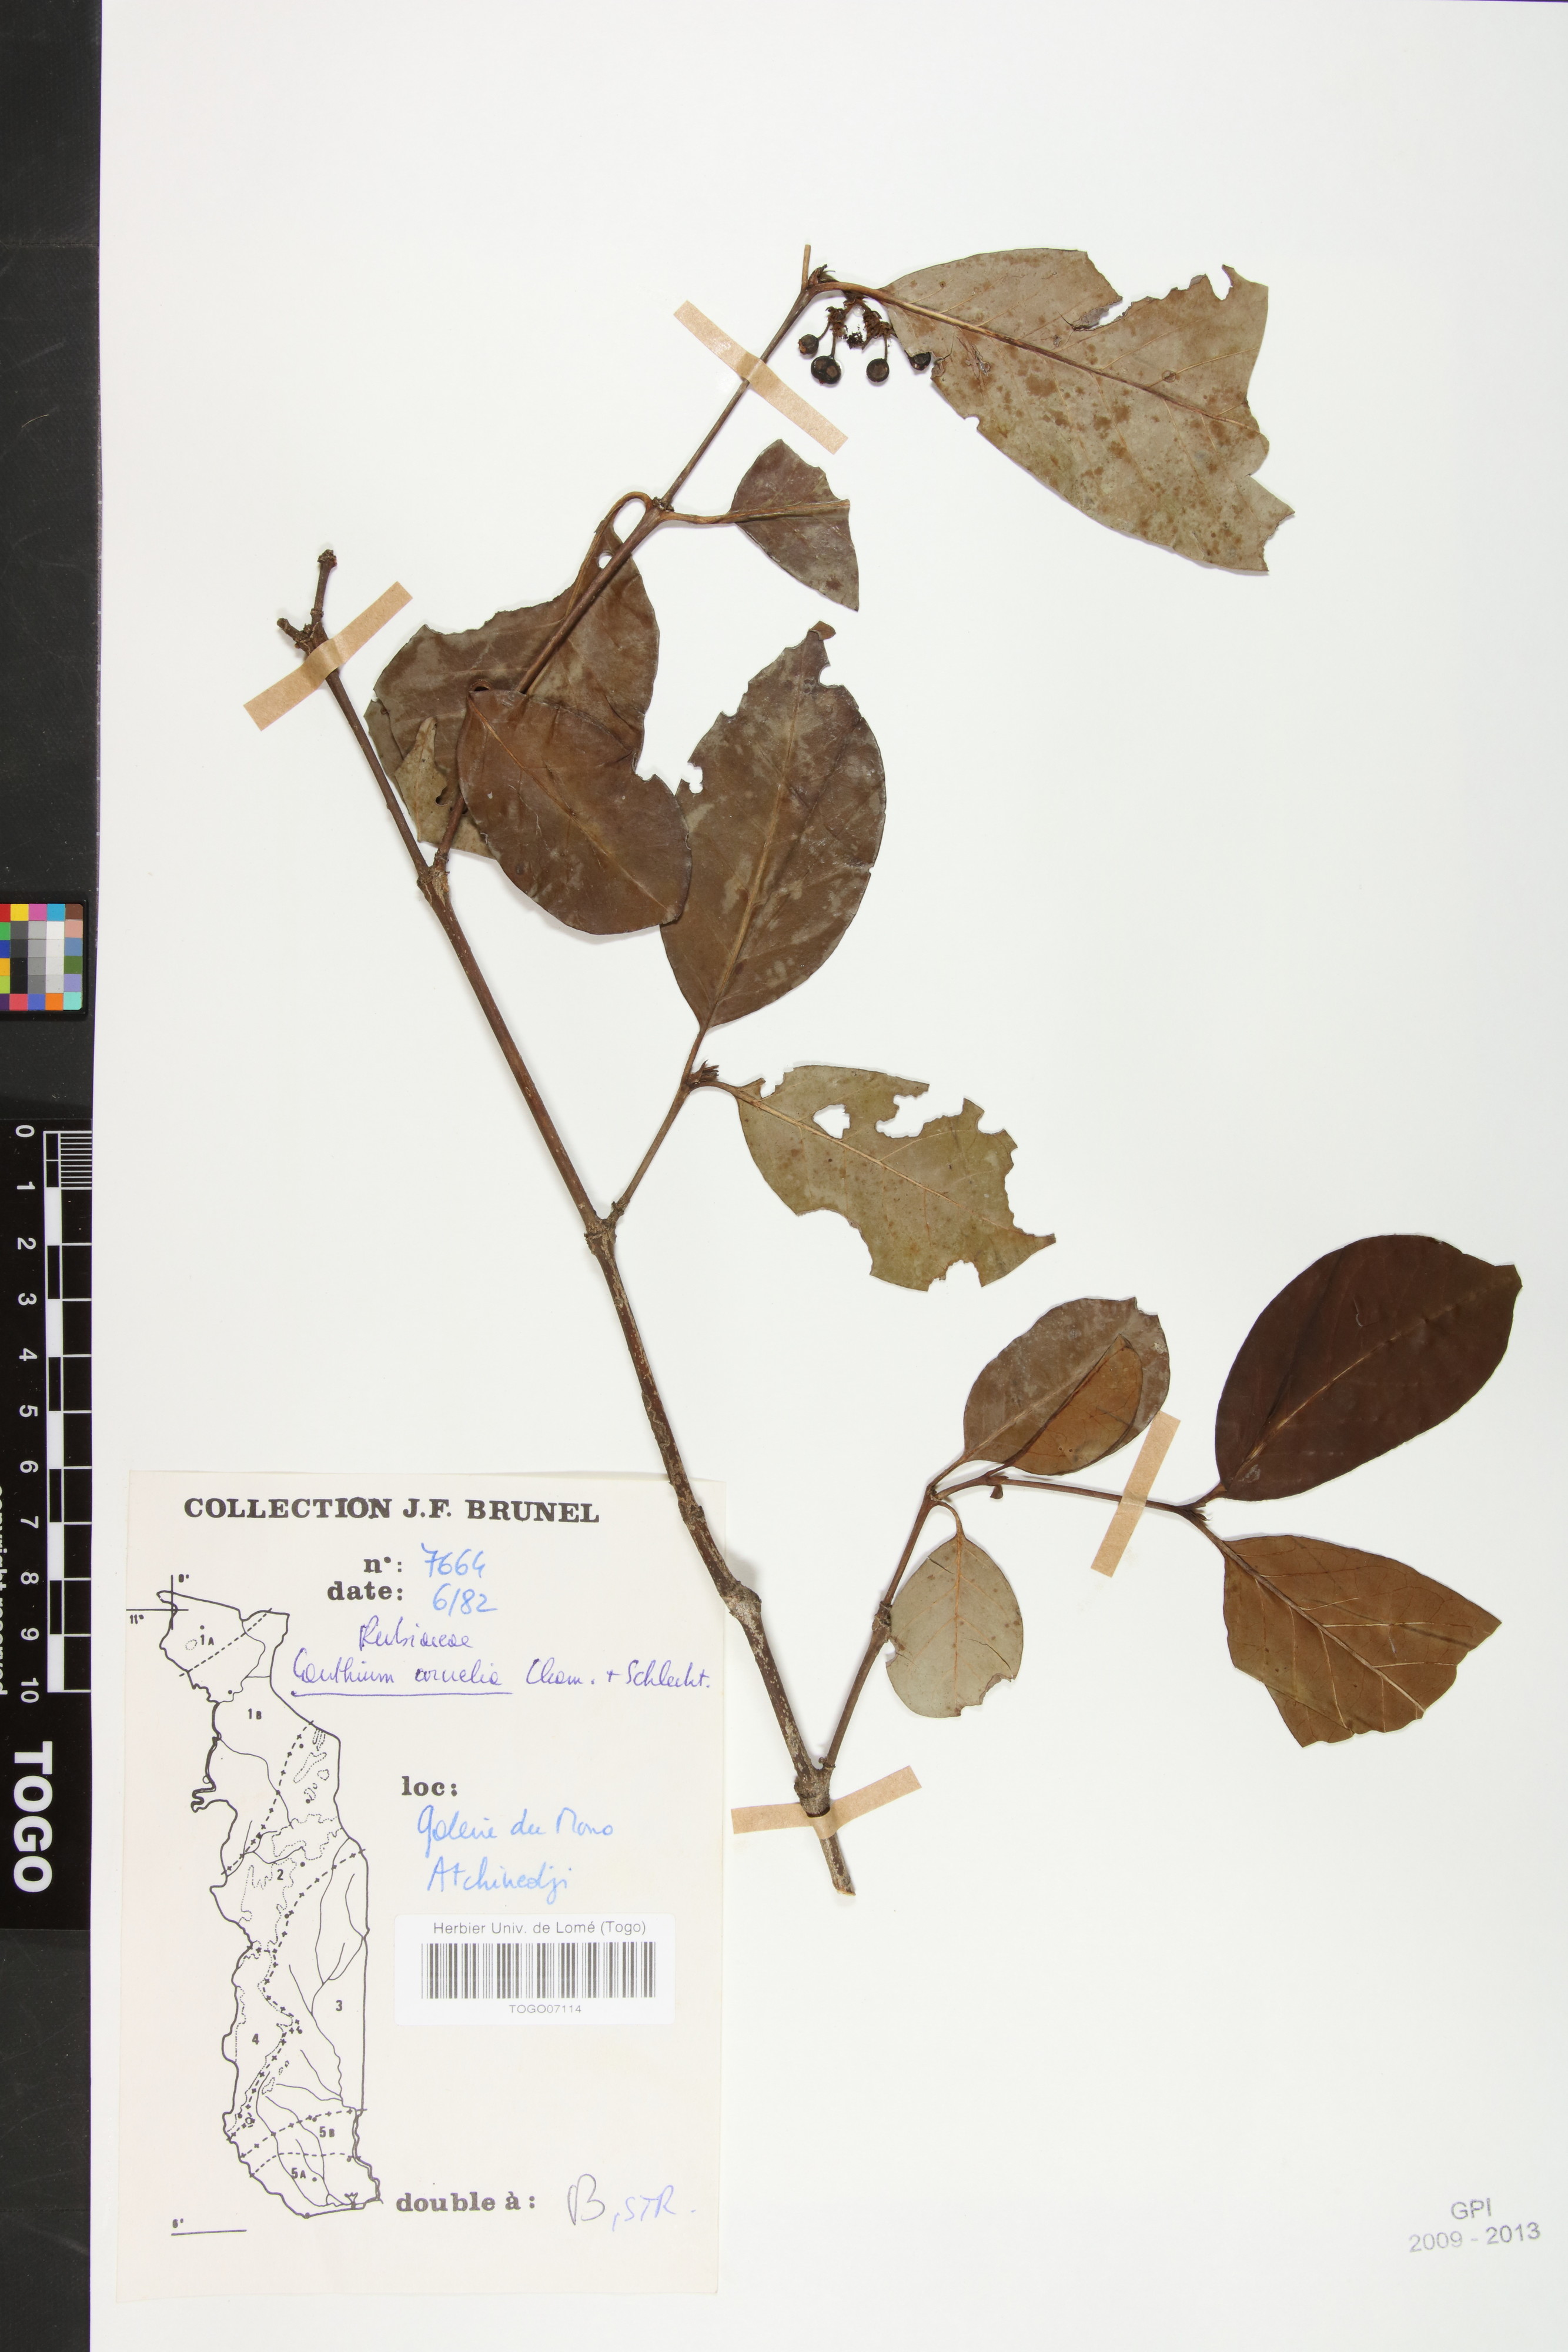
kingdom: Plantae
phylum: Tracheophyta
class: Magnoliopsida
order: Gentianales
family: Rubiaceae
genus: Keetia
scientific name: Keetia cornelia
